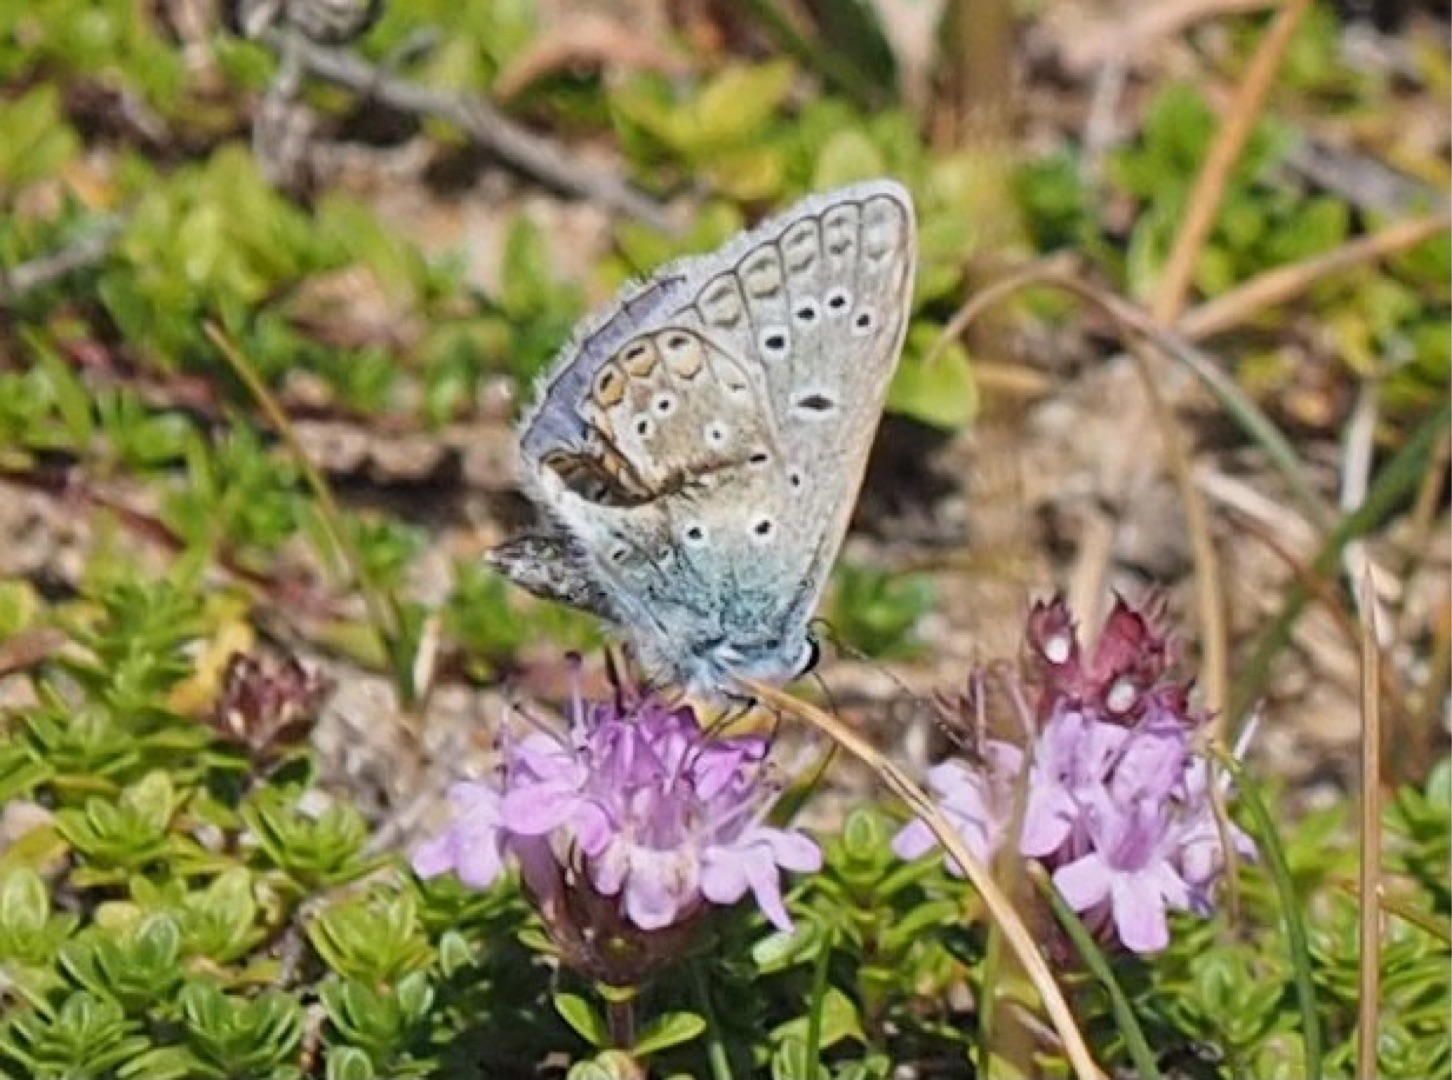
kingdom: Animalia
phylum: Arthropoda
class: Insecta
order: Lepidoptera
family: Lycaenidae
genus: Polyommatus
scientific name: Polyommatus icarus
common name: Almindelig blåfugl
